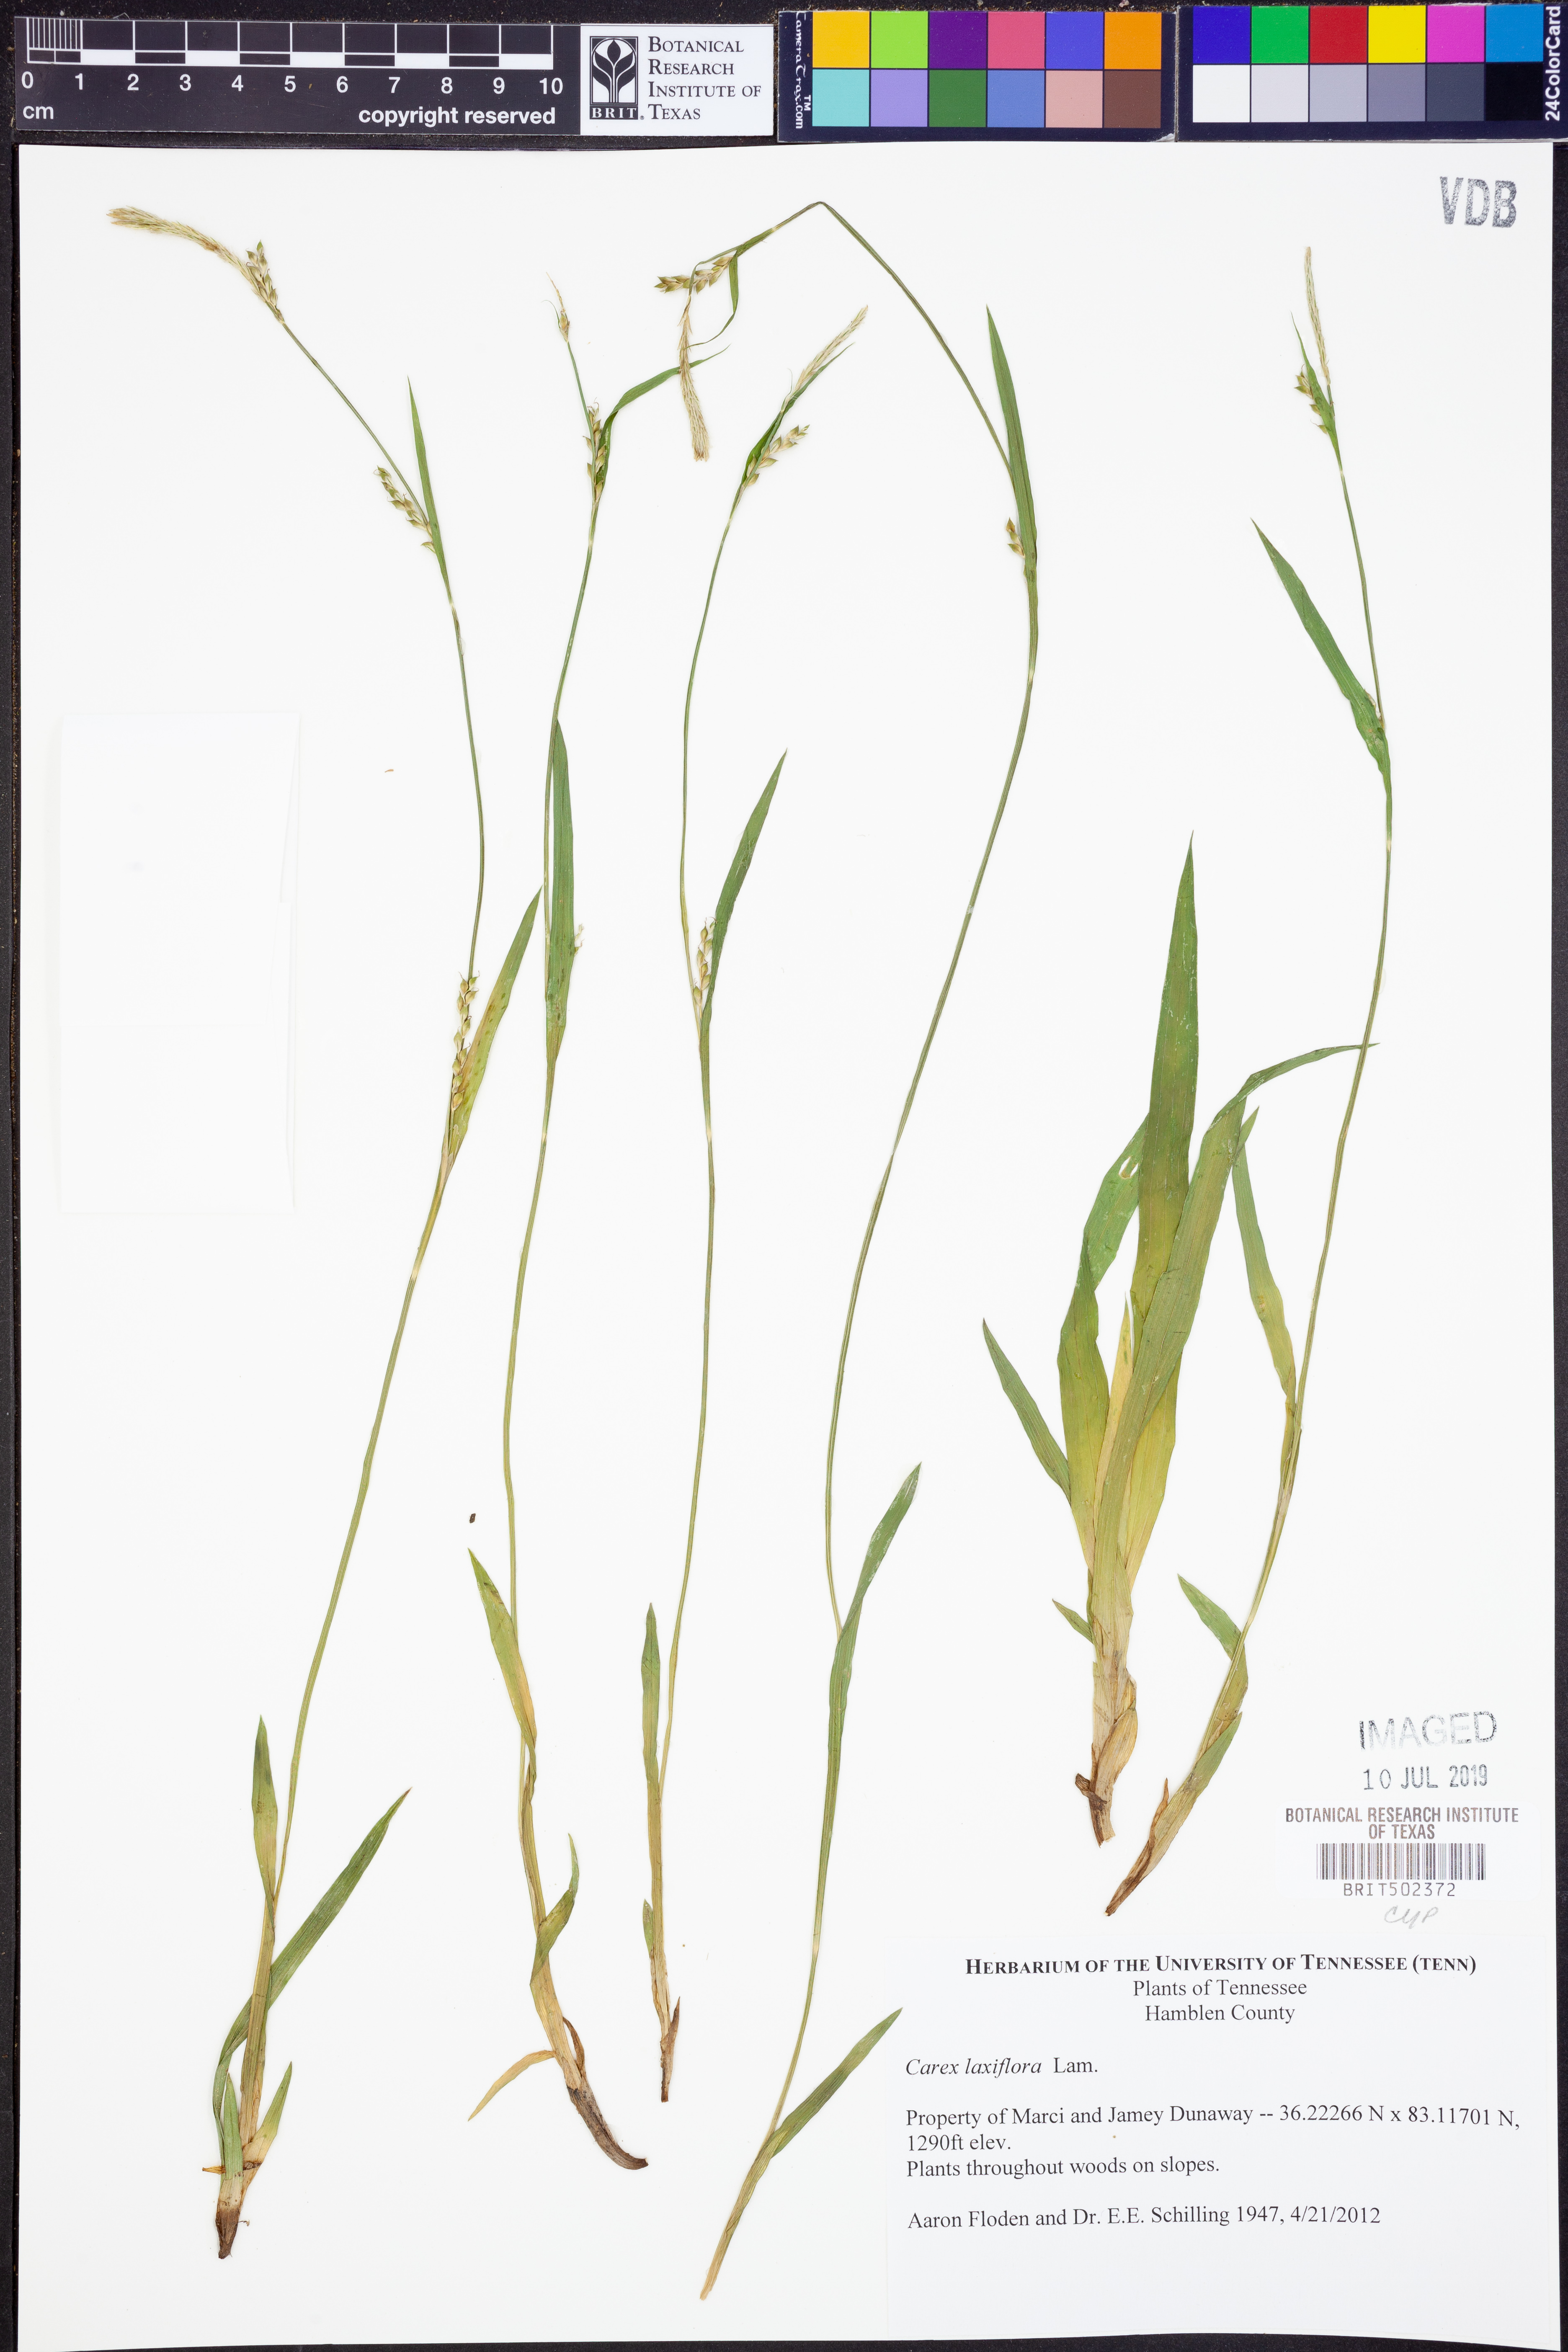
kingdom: Plantae
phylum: Tracheophyta
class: Liliopsida
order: Poales
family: Cyperaceae
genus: Carex
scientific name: Carex laxiflora
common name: Beech wood sedge
